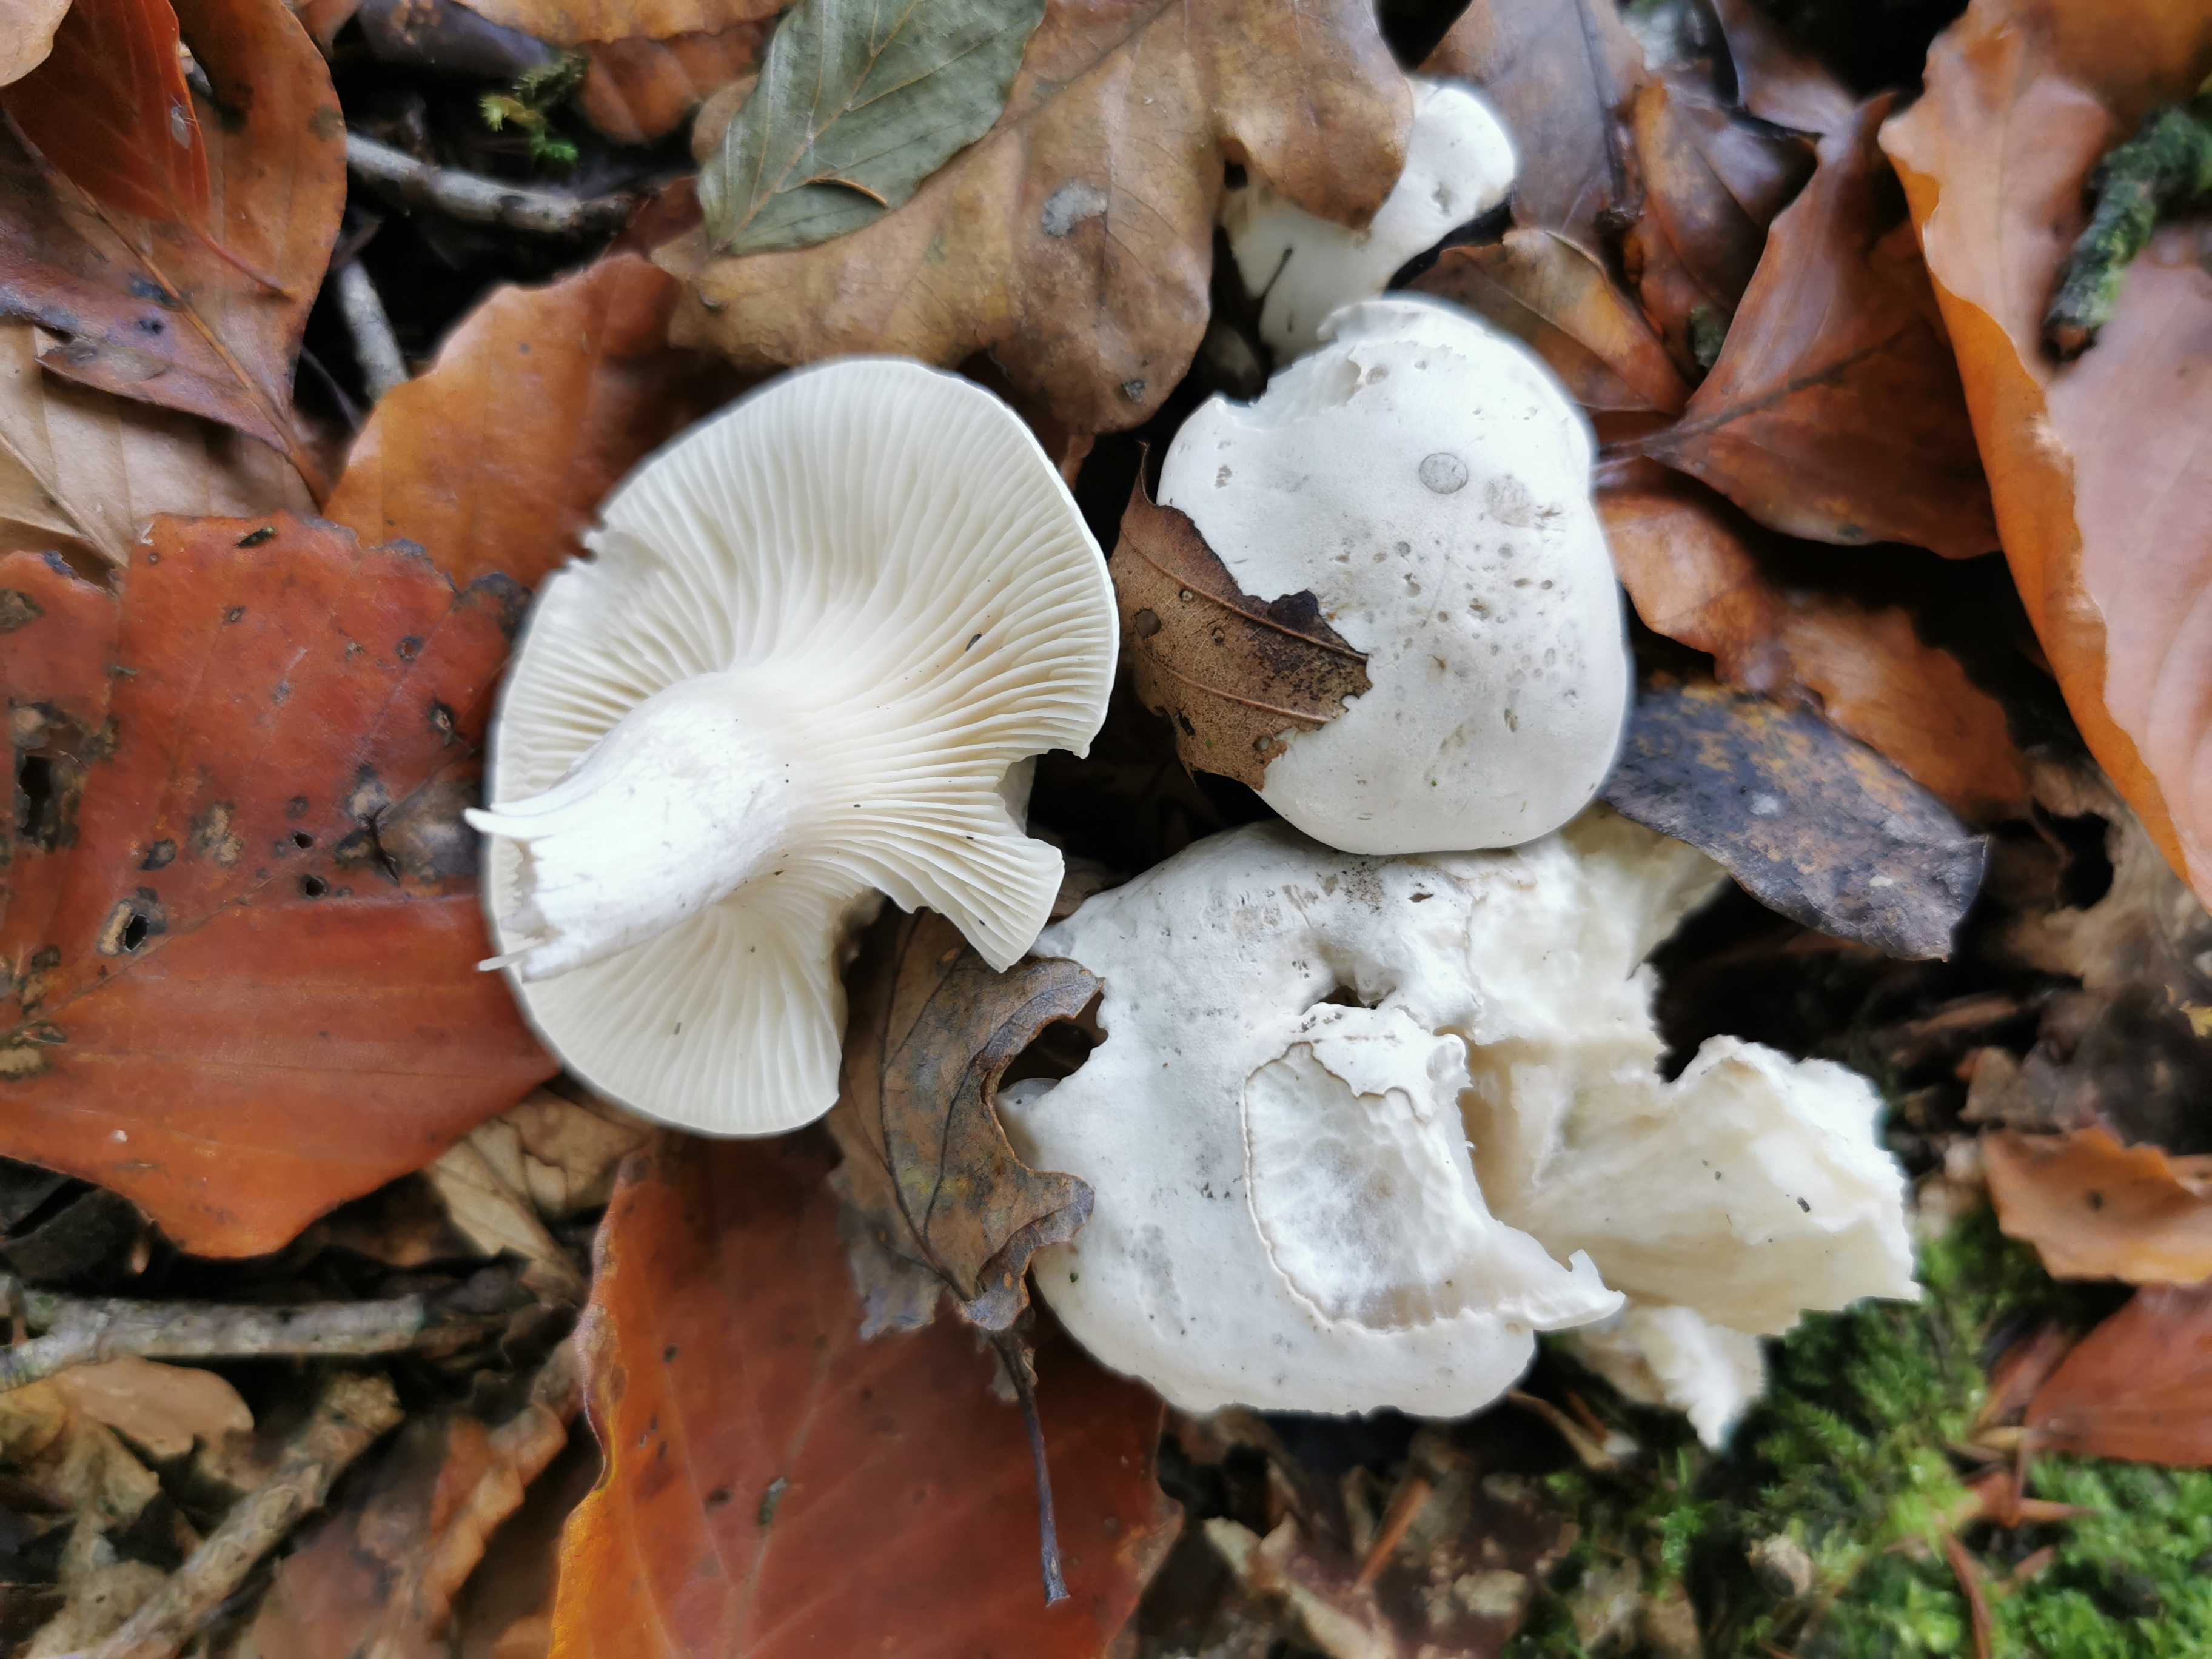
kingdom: Fungi
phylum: Basidiomycota
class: Agaricomycetes
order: Agaricales
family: Entolomataceae
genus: Clitopilus
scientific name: Clitopilus prunulus
